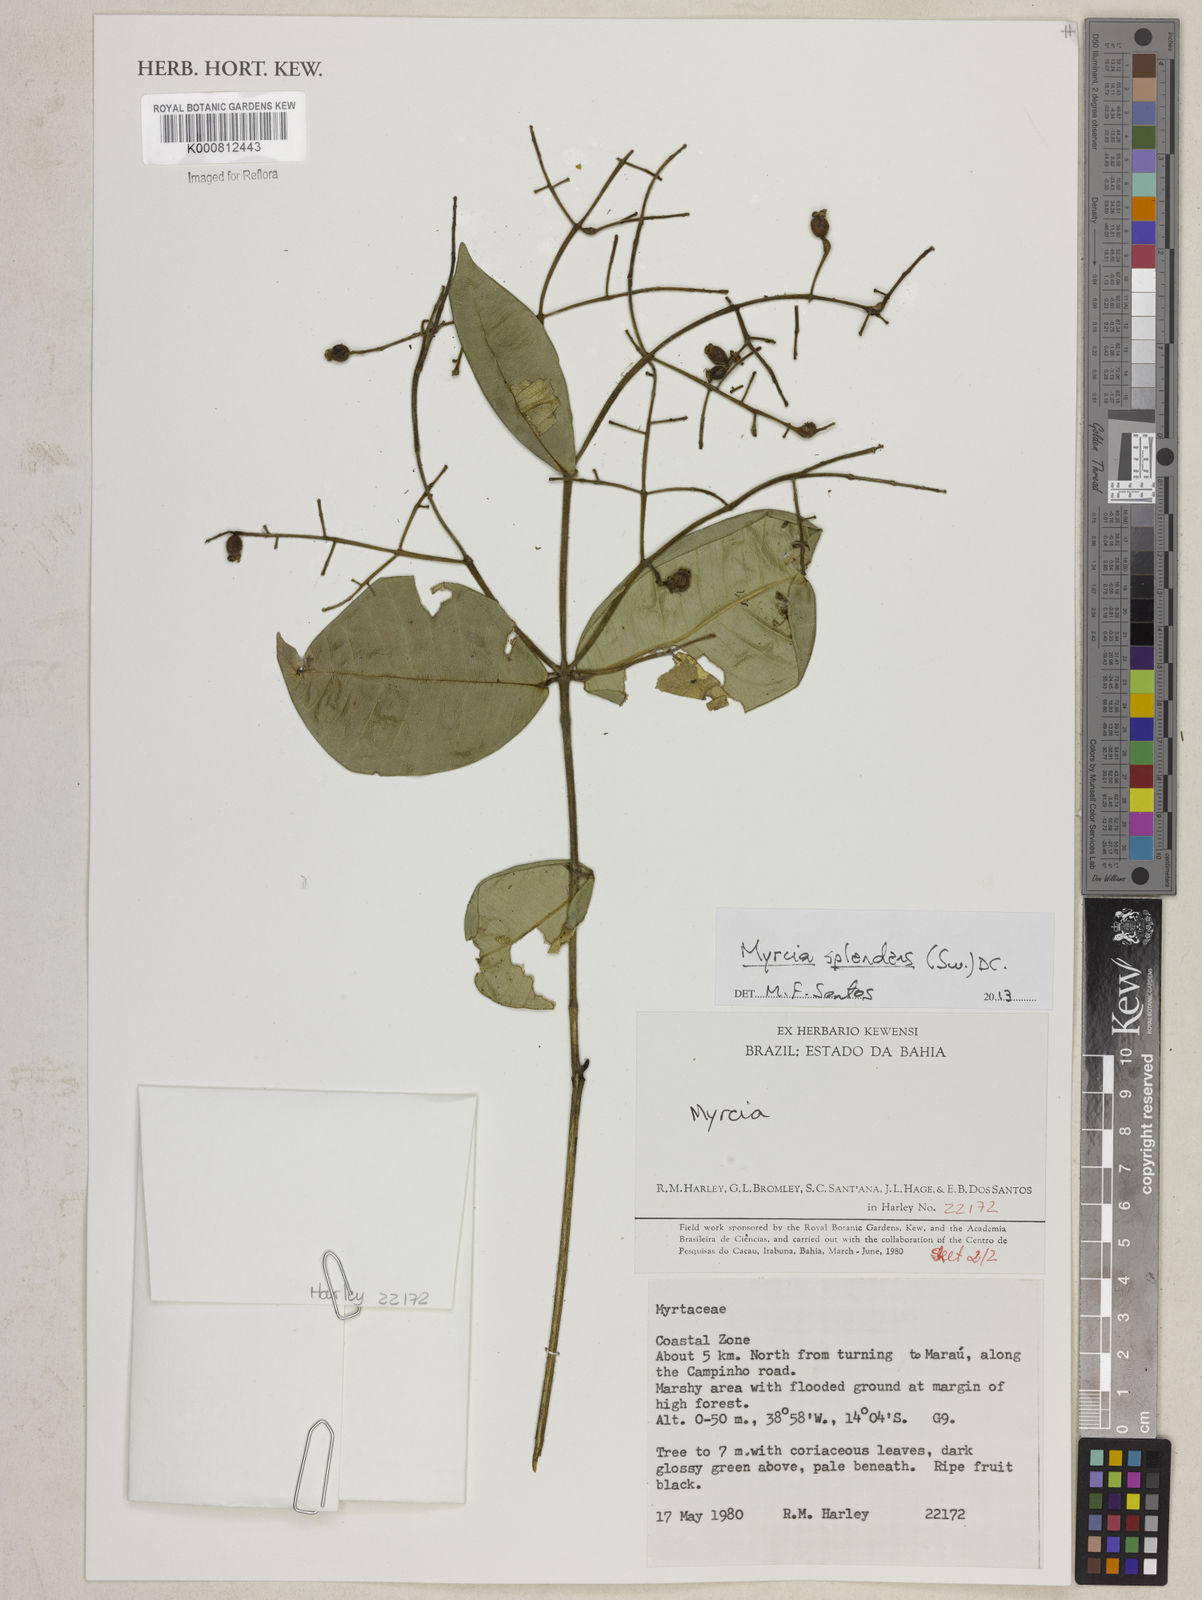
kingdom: Plantae
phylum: Tracheophyta
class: Magnoliopsida
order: Myrtales
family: Myrtaceae
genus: Myrcia
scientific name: Myrcia splendens
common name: Surinam cherry
